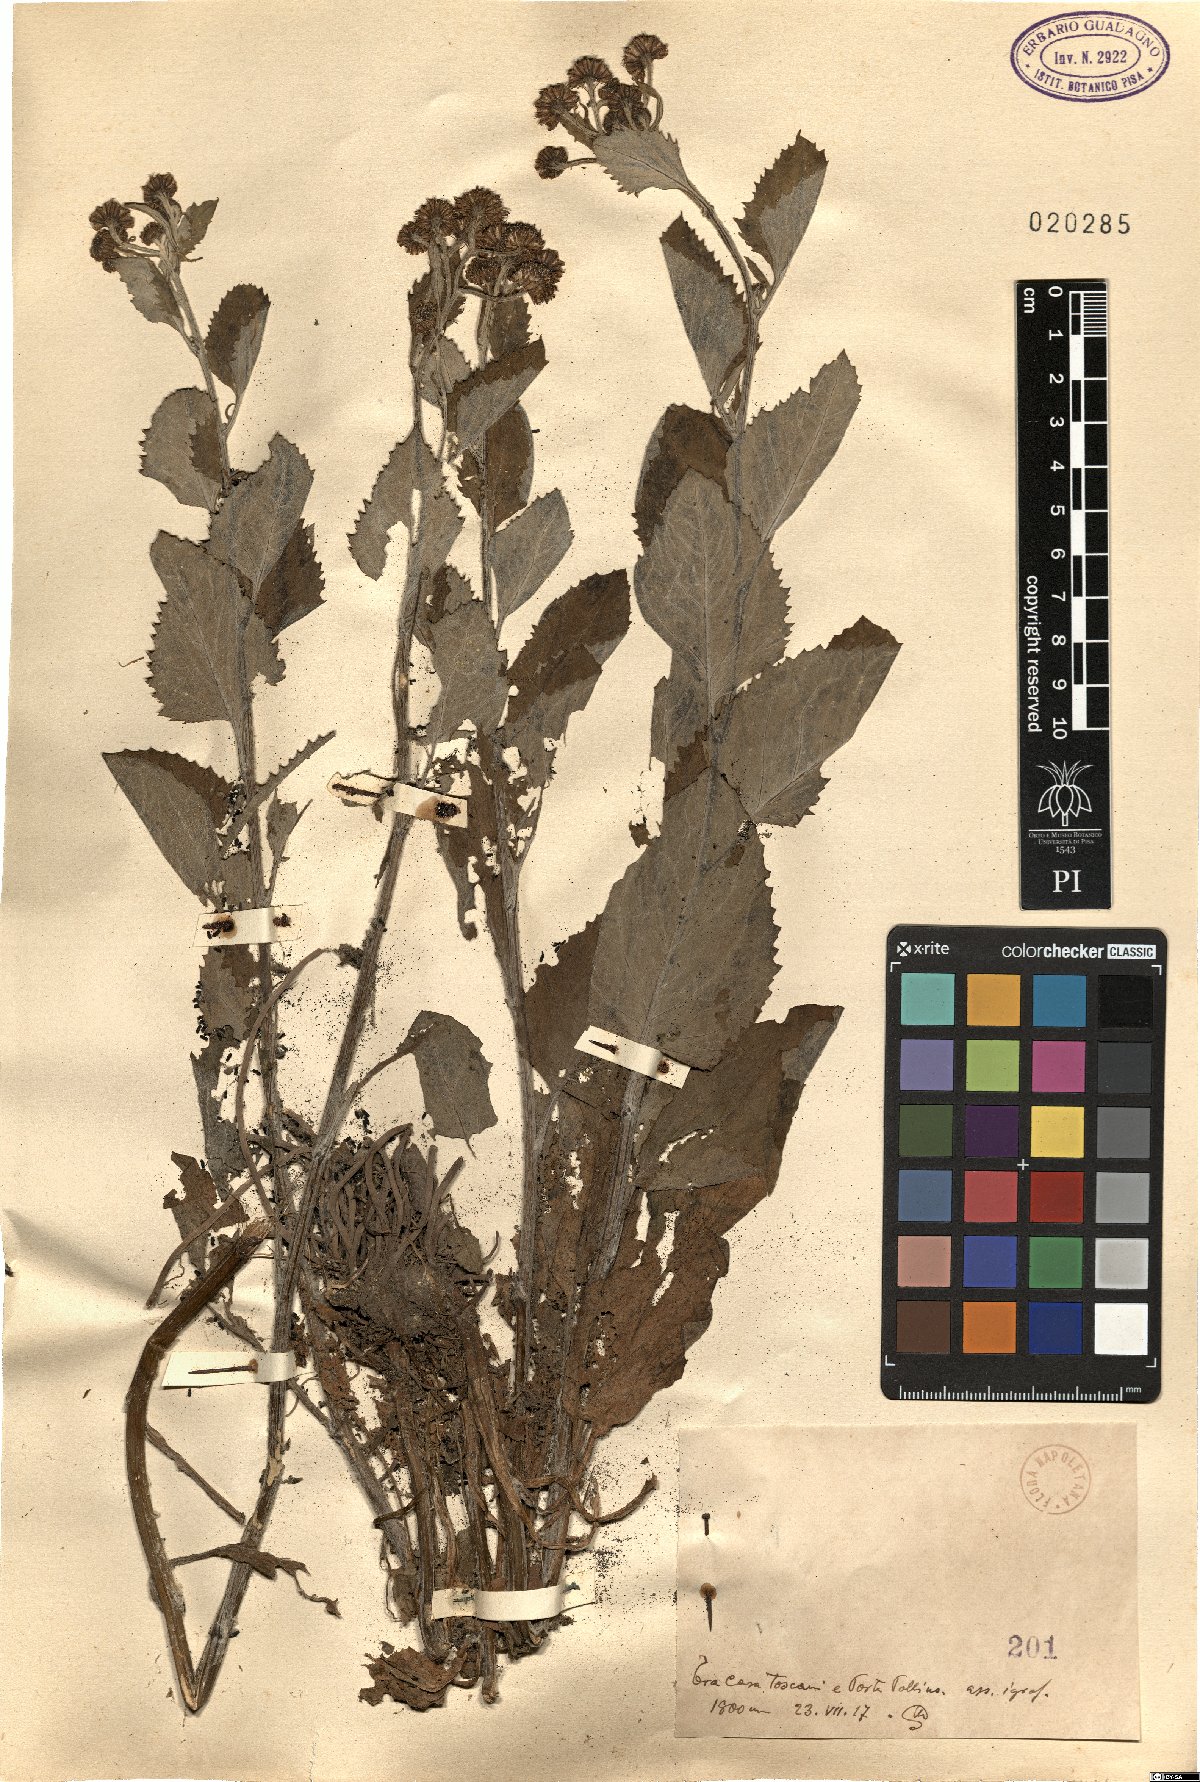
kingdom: Plantae
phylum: Tracheophyta
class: Magnoliopsida
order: Asterales
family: Asteraceae
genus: Senecio
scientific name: Senecio
